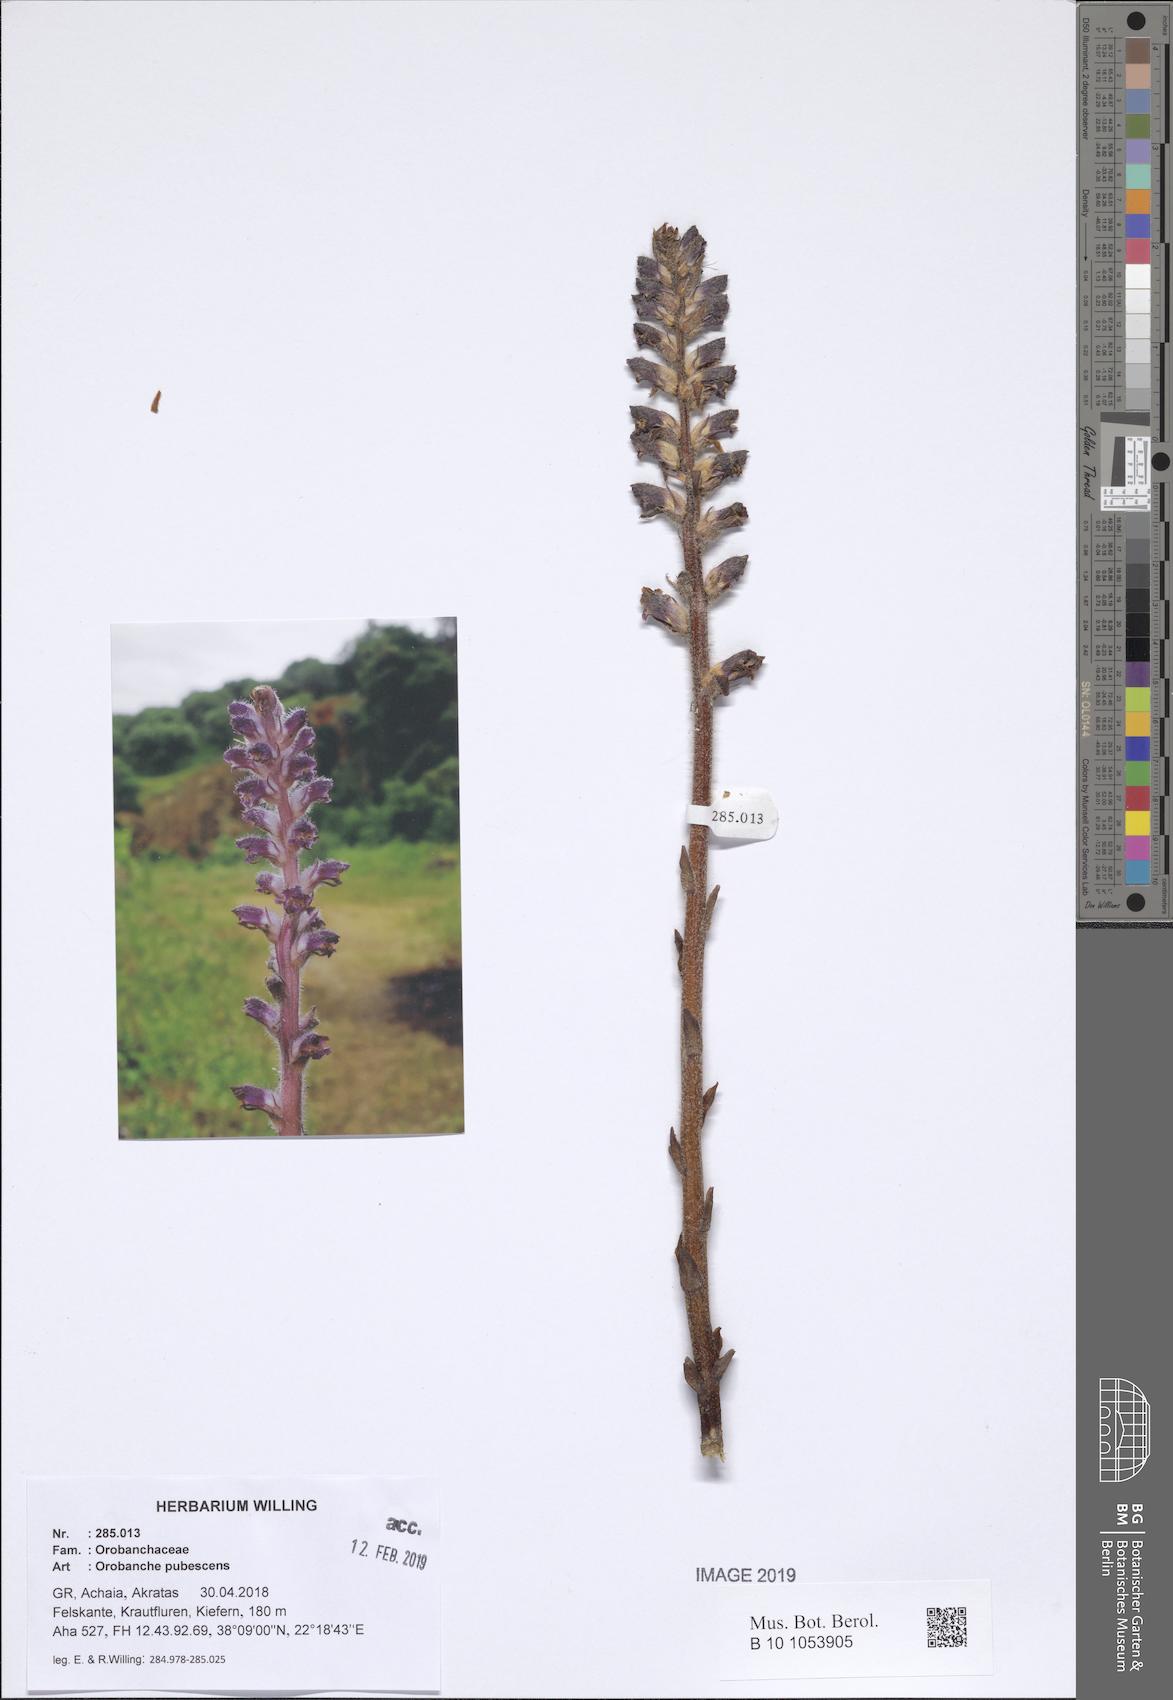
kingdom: Plantae
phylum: Tracheophyta
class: Magnoliopsida
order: Lamiales
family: Orobanchaceae
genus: Orobanche
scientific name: Orobanche pubescens
